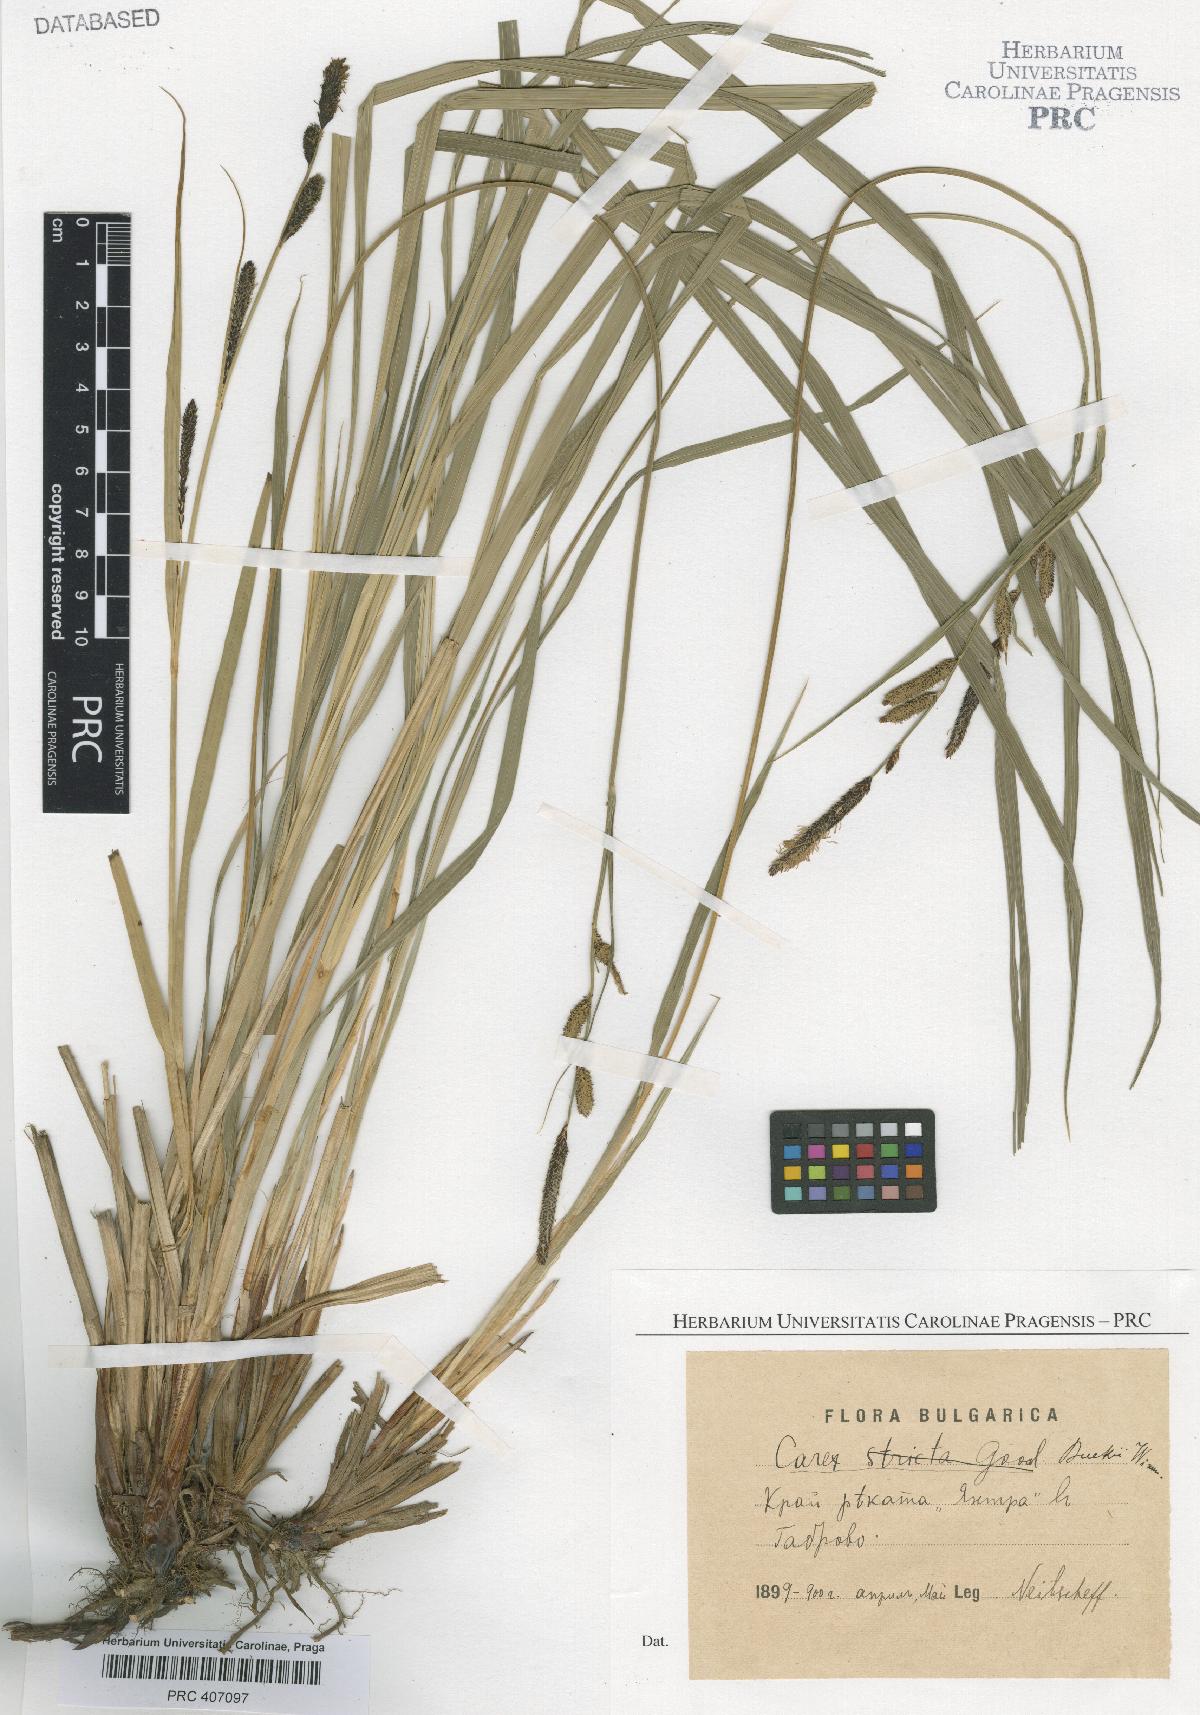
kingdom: Plantae
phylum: Tracheophyta
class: Liliopsida
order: Poales
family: Cyperaceae
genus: Carex
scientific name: Carex buekii
